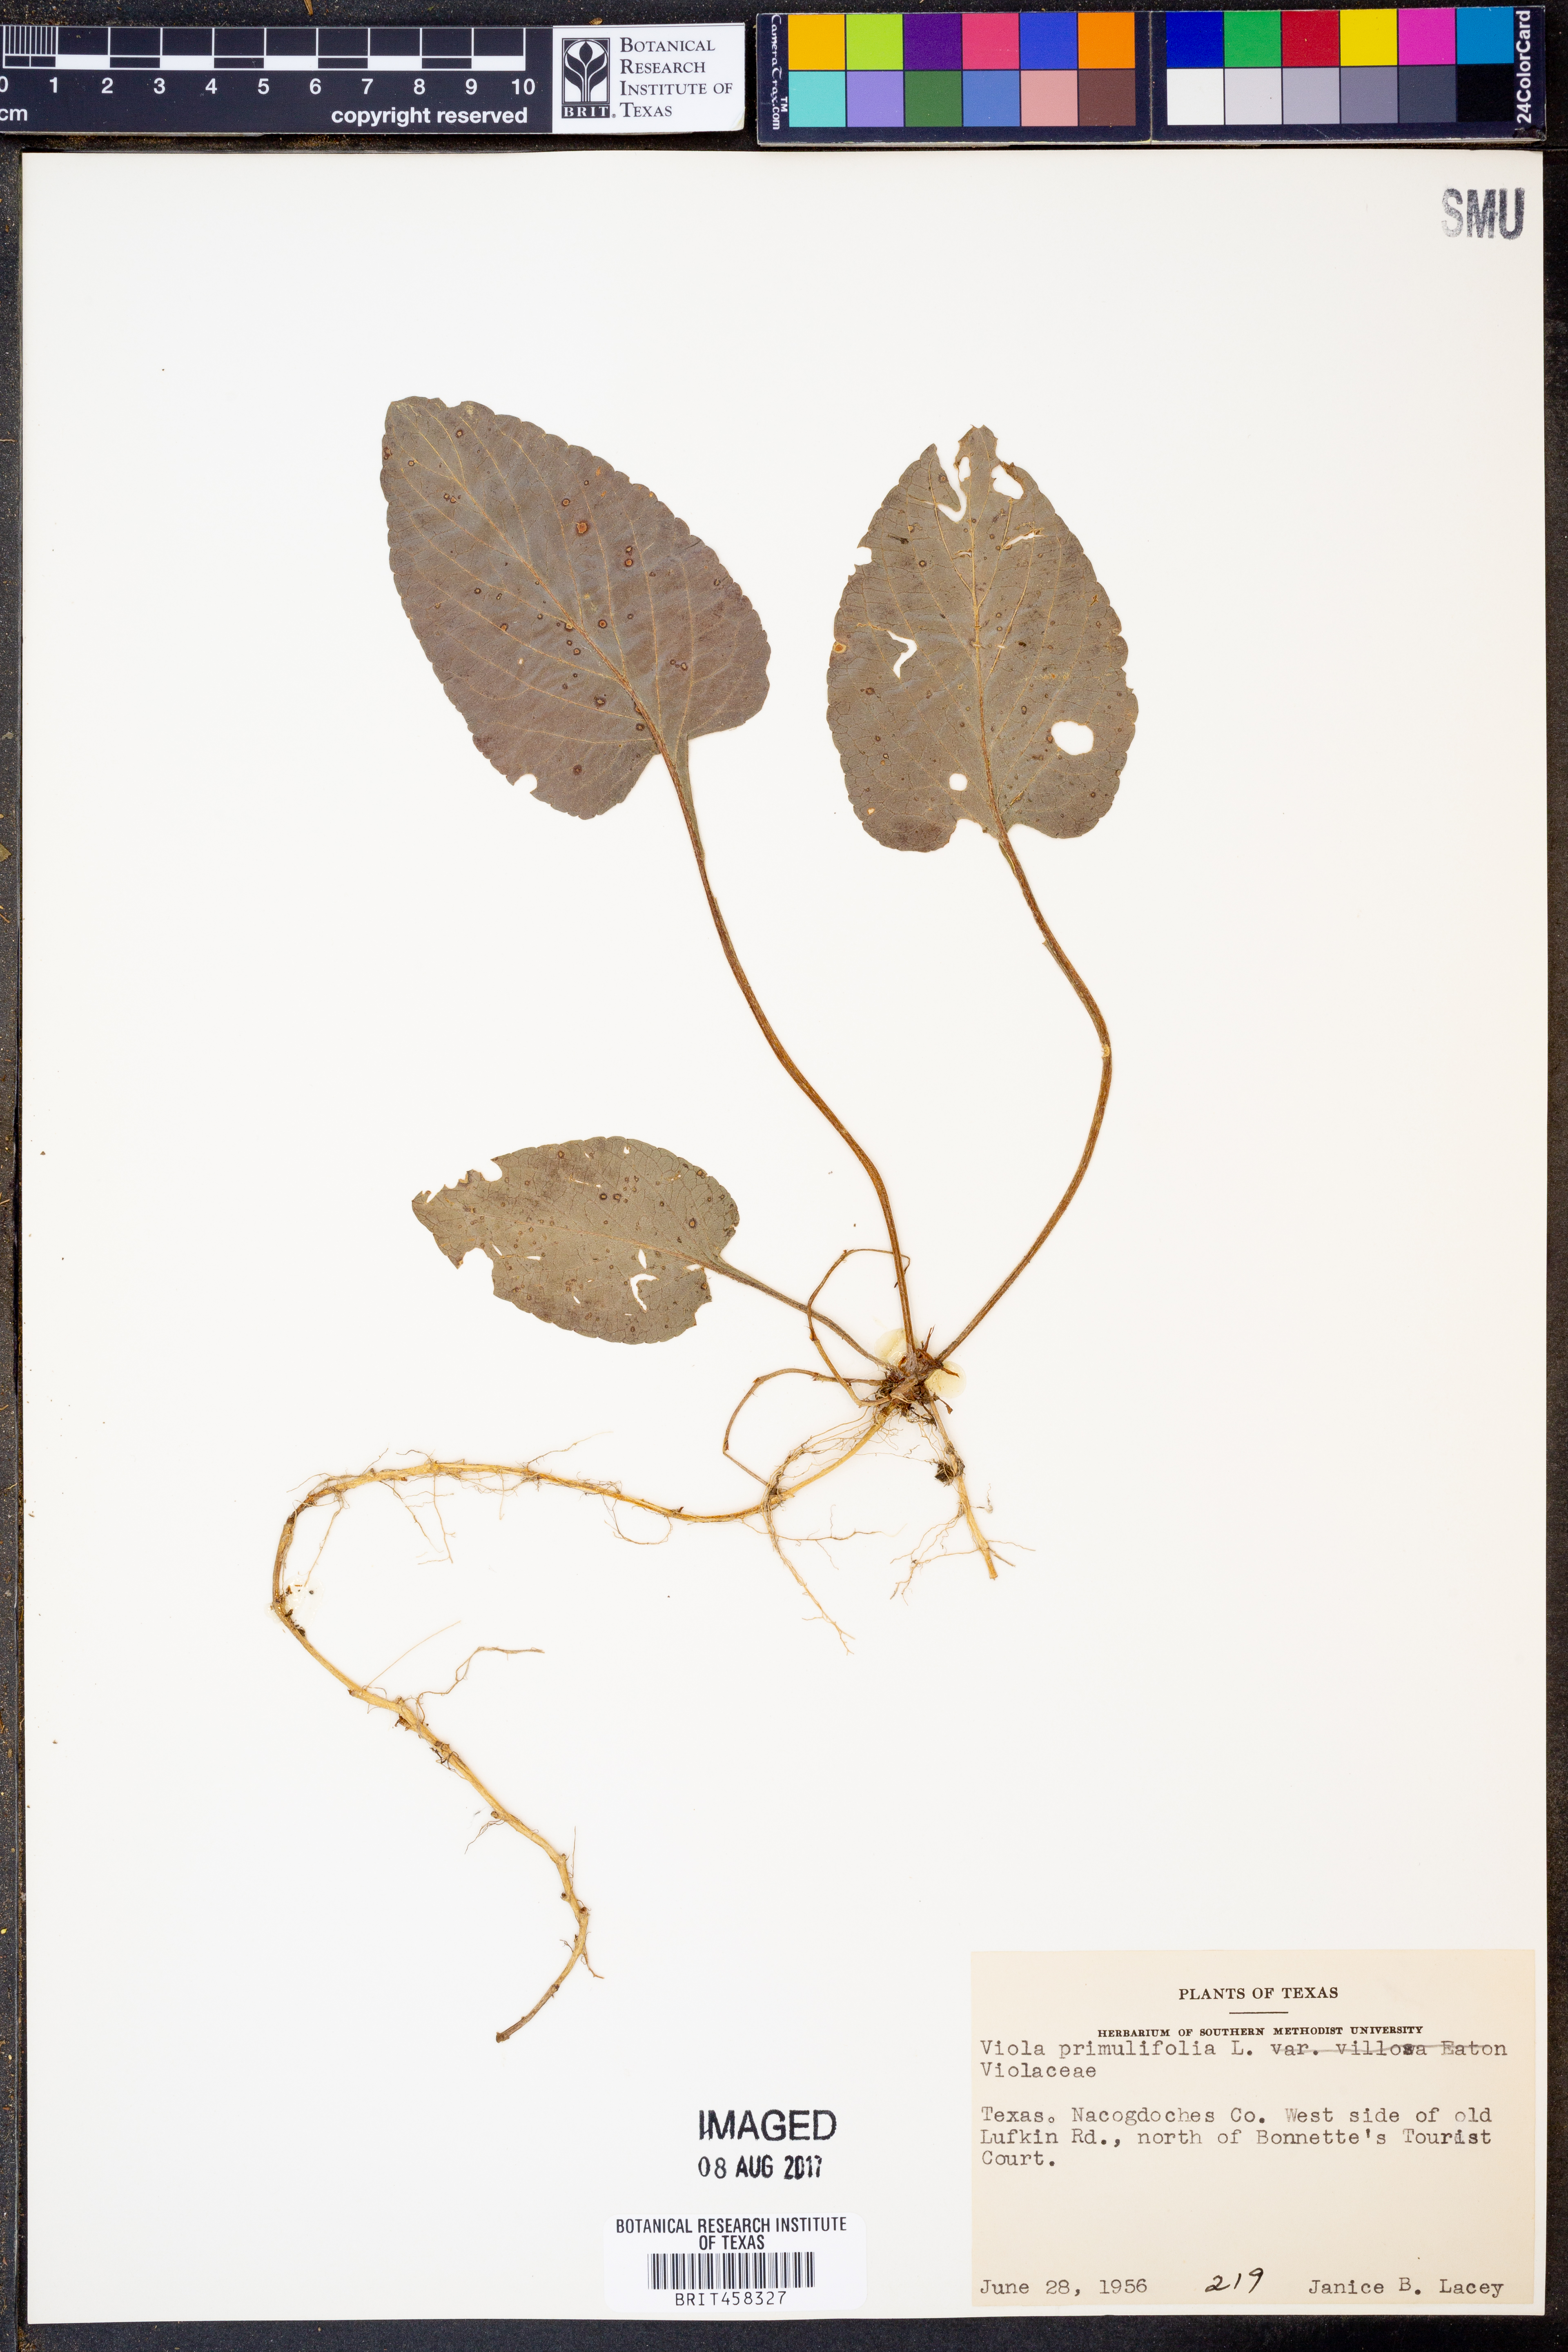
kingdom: Plantae
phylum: Tracheophyta
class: Magnoliopsida
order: Malpighiales
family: Violaceae
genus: Viola
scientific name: Viola primulifolia
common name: Primrose-leaf violet
